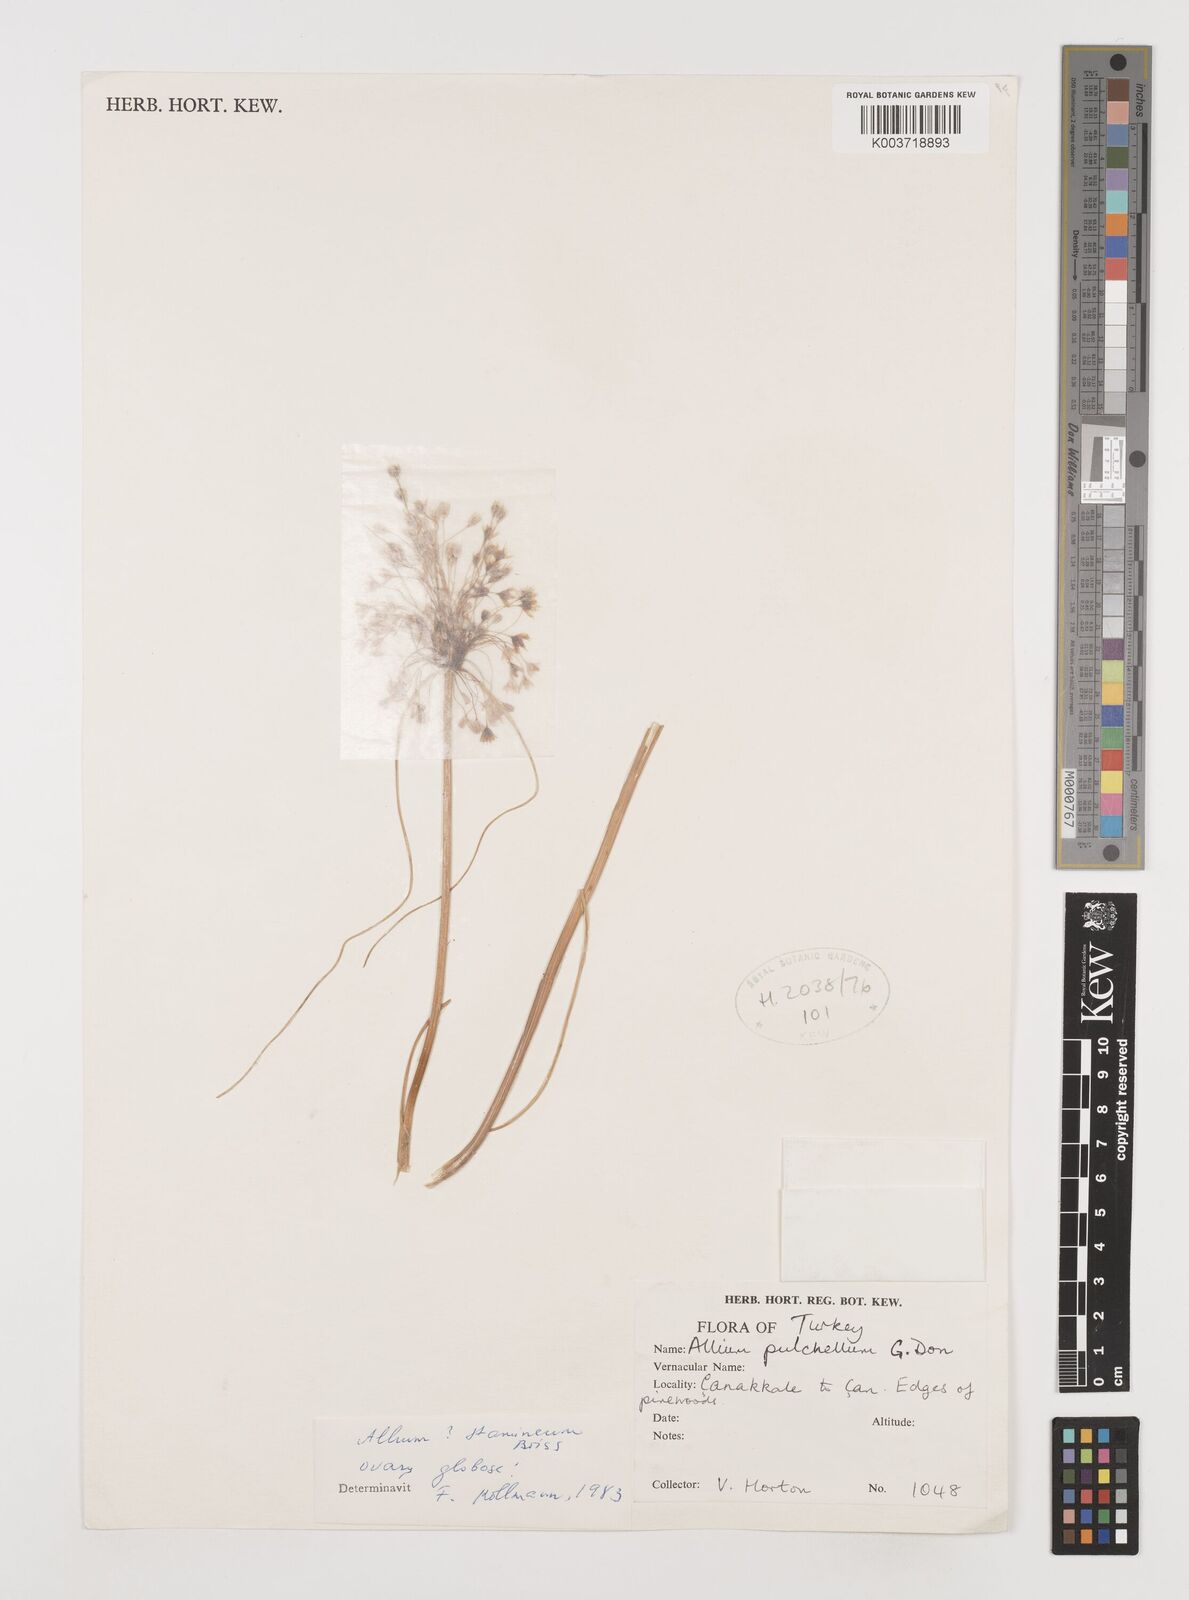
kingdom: Plantae
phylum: Tracheophyta
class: Liliopsida
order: Asparagales
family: Amaryllidaceae
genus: Allium
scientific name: Allium stamineum
